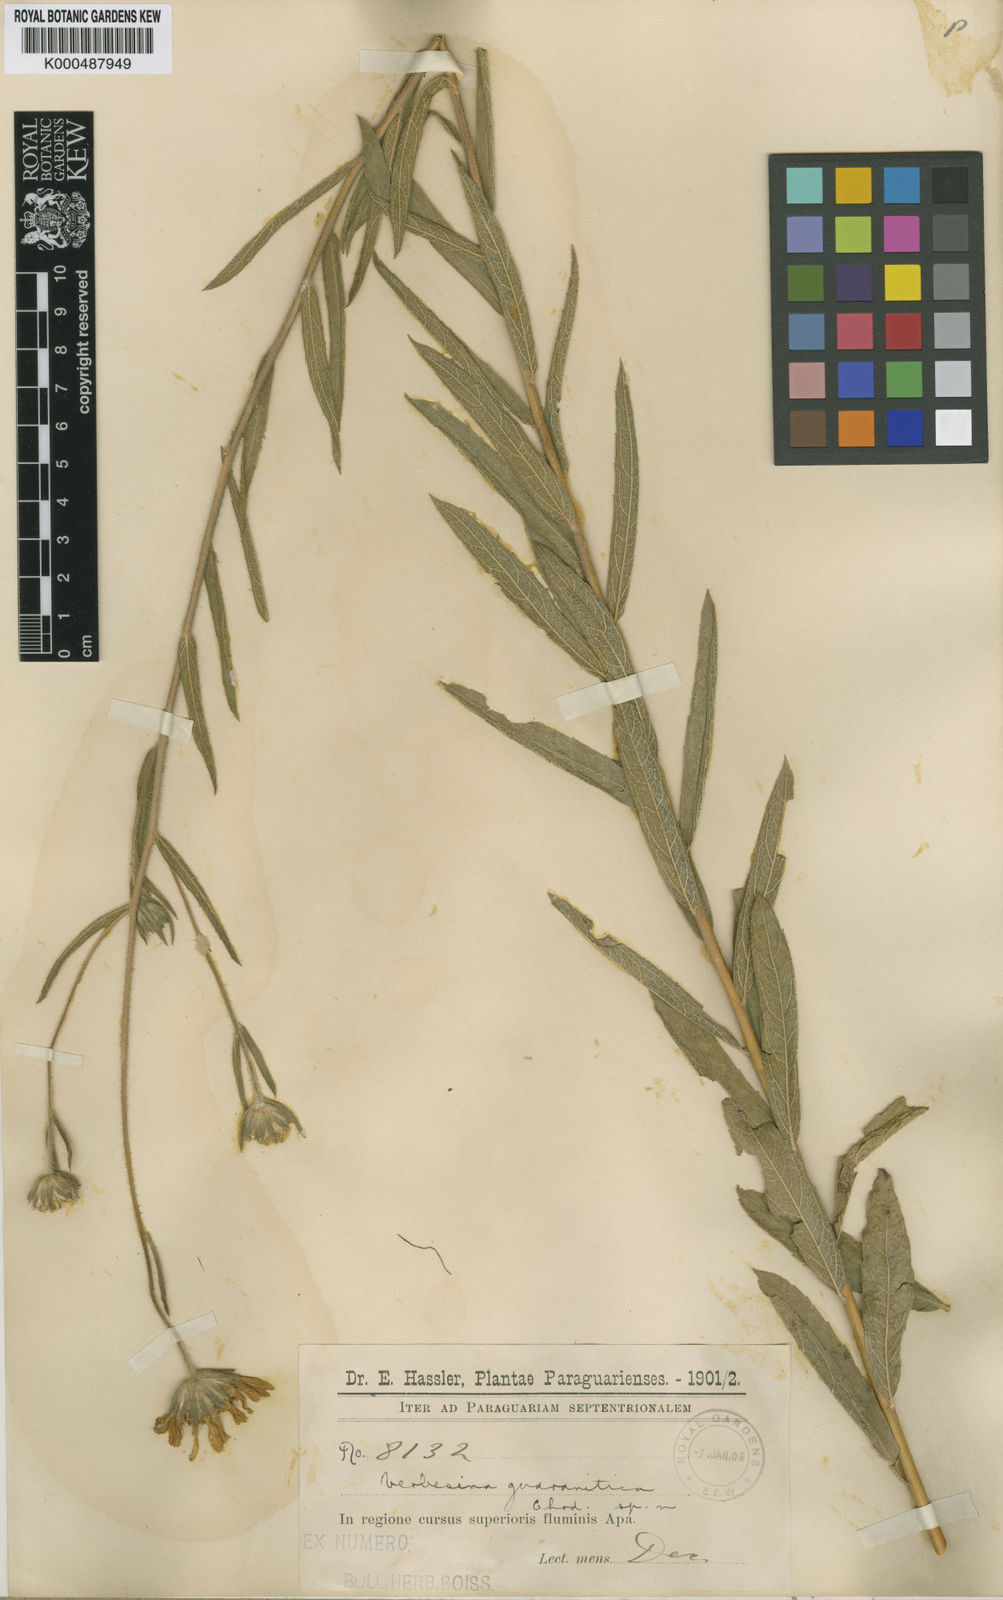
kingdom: Plantae
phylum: Tracheophyta
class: Magnoliopsida
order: Asterales
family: Asteraceae
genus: Verbesina
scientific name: Verbesina guaranitica
